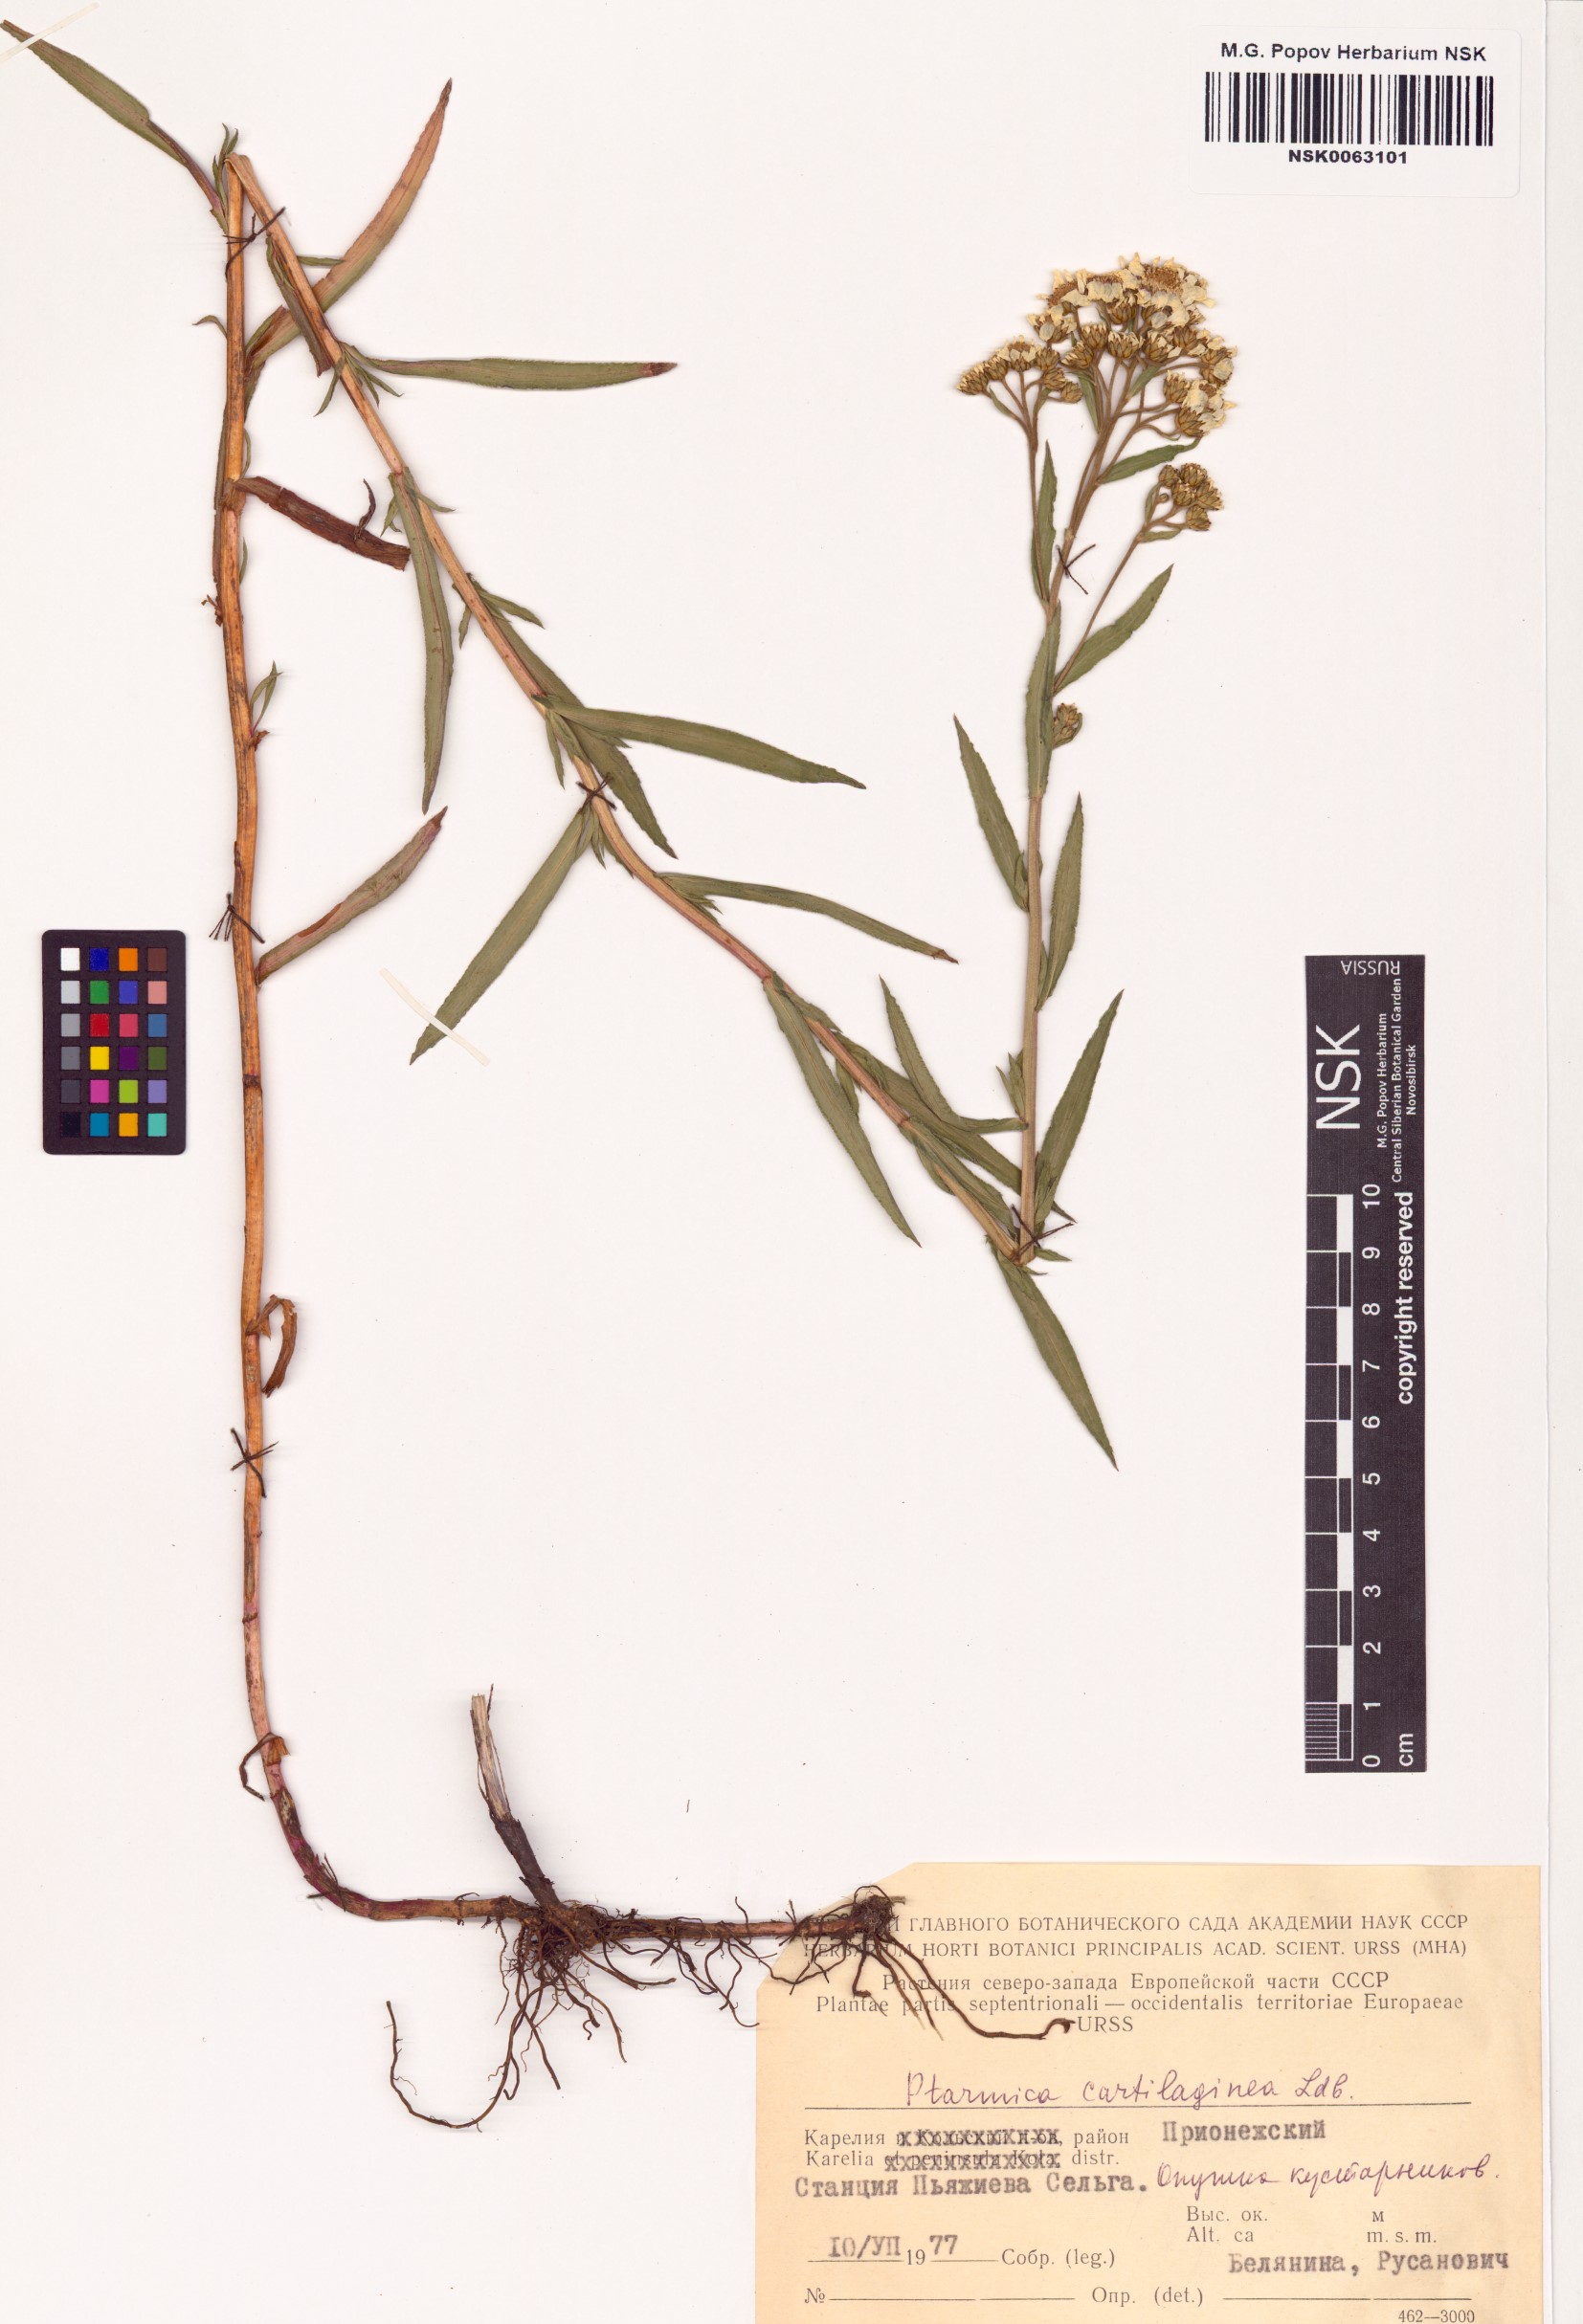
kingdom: Plantae
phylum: Tracheophyta
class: Magnoliopsida
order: Asterales
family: Asteraceae
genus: Achillea
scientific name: Achillea salicifolia
